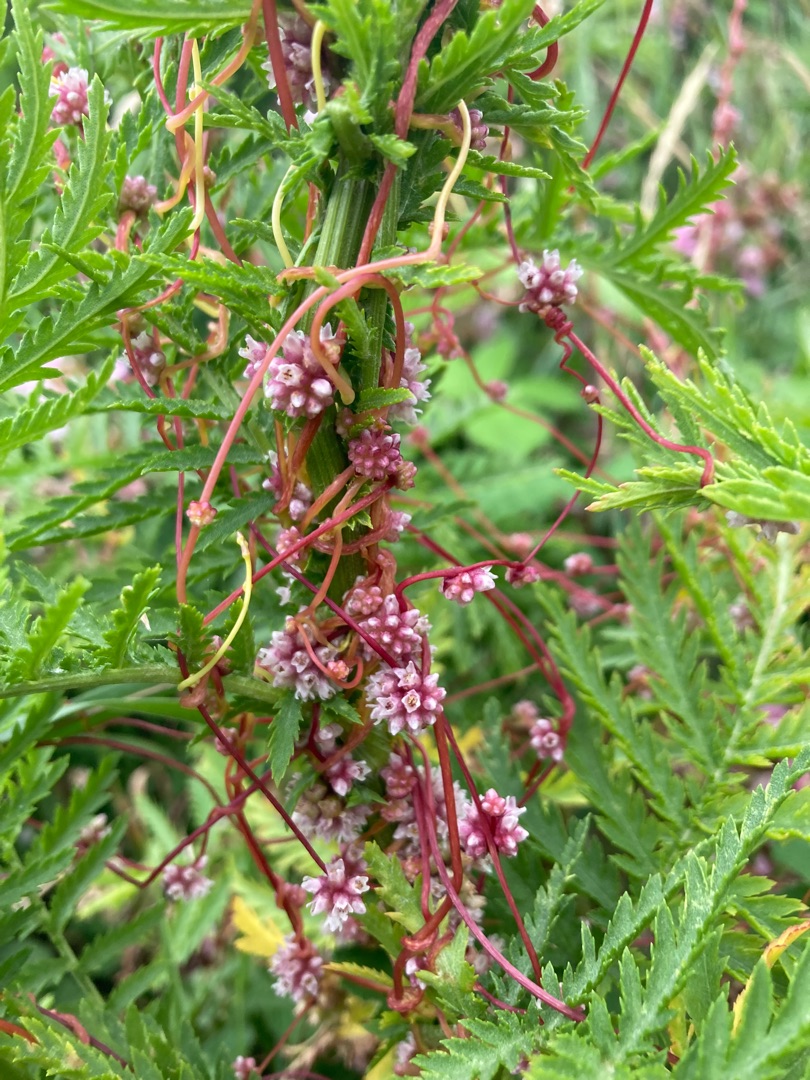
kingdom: Plantae
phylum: Tracheophyta
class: Magnoliopsida
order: Solanales
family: Convolvulaceae
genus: Cuscuta
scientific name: Cuscuta europaea
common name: Nælde-silke
